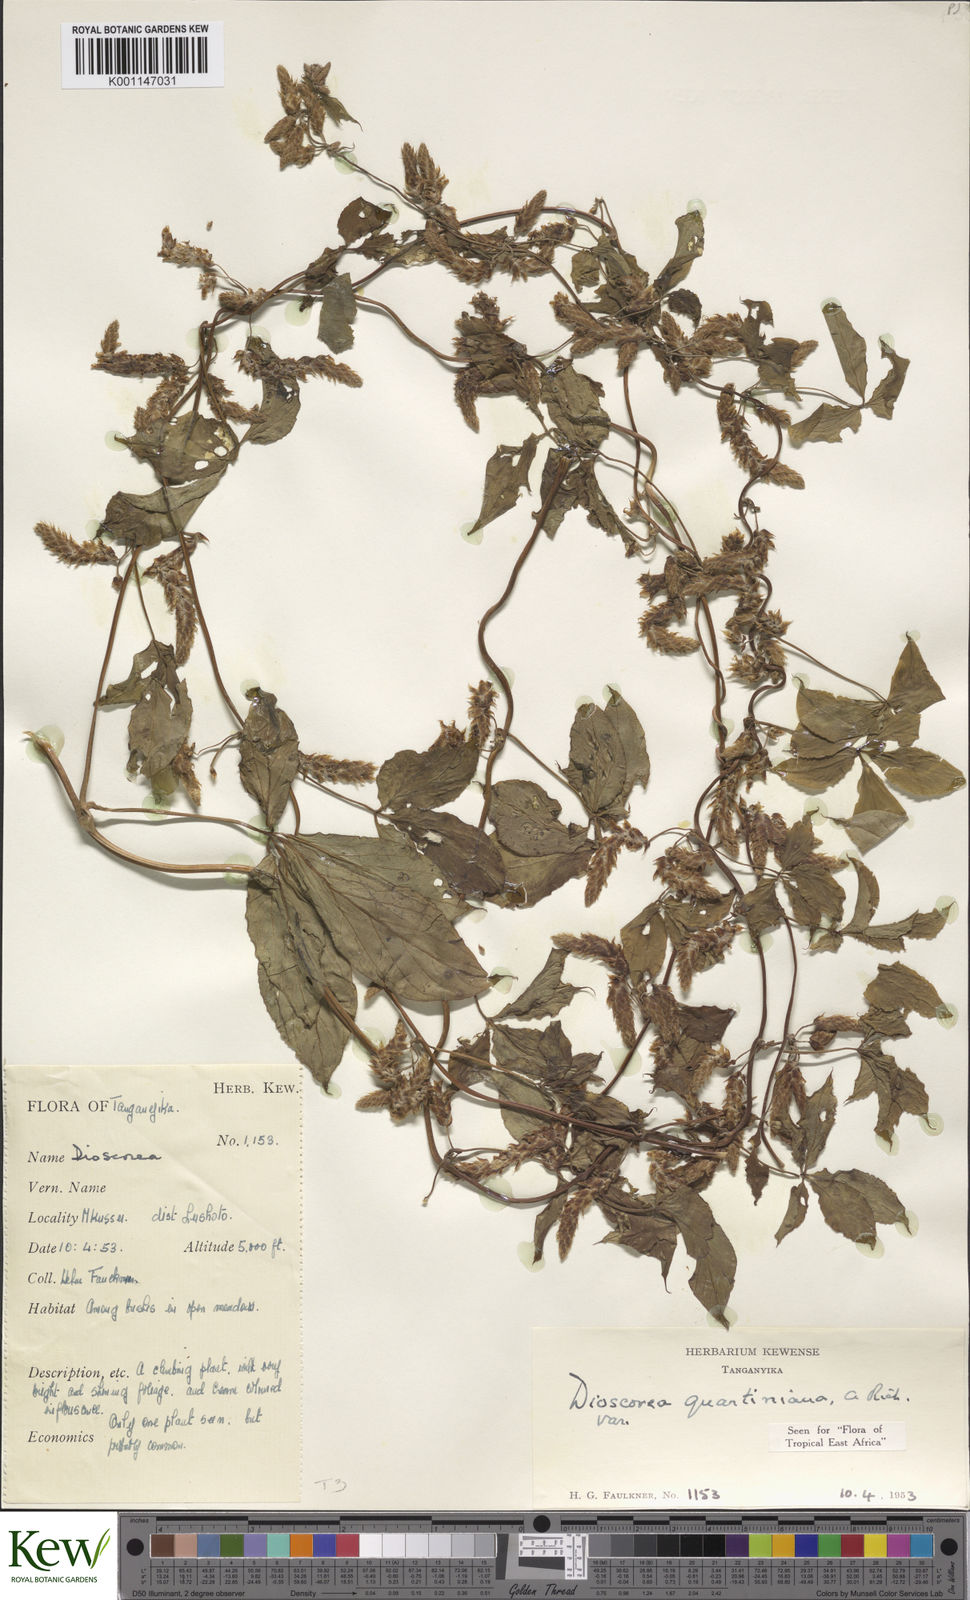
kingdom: Plantae
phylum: Tracheophyta
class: Liliopsida
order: Dioscoreales
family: Dioscoreaceae
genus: Dioscorea
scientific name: Dioscorea quartiniana
